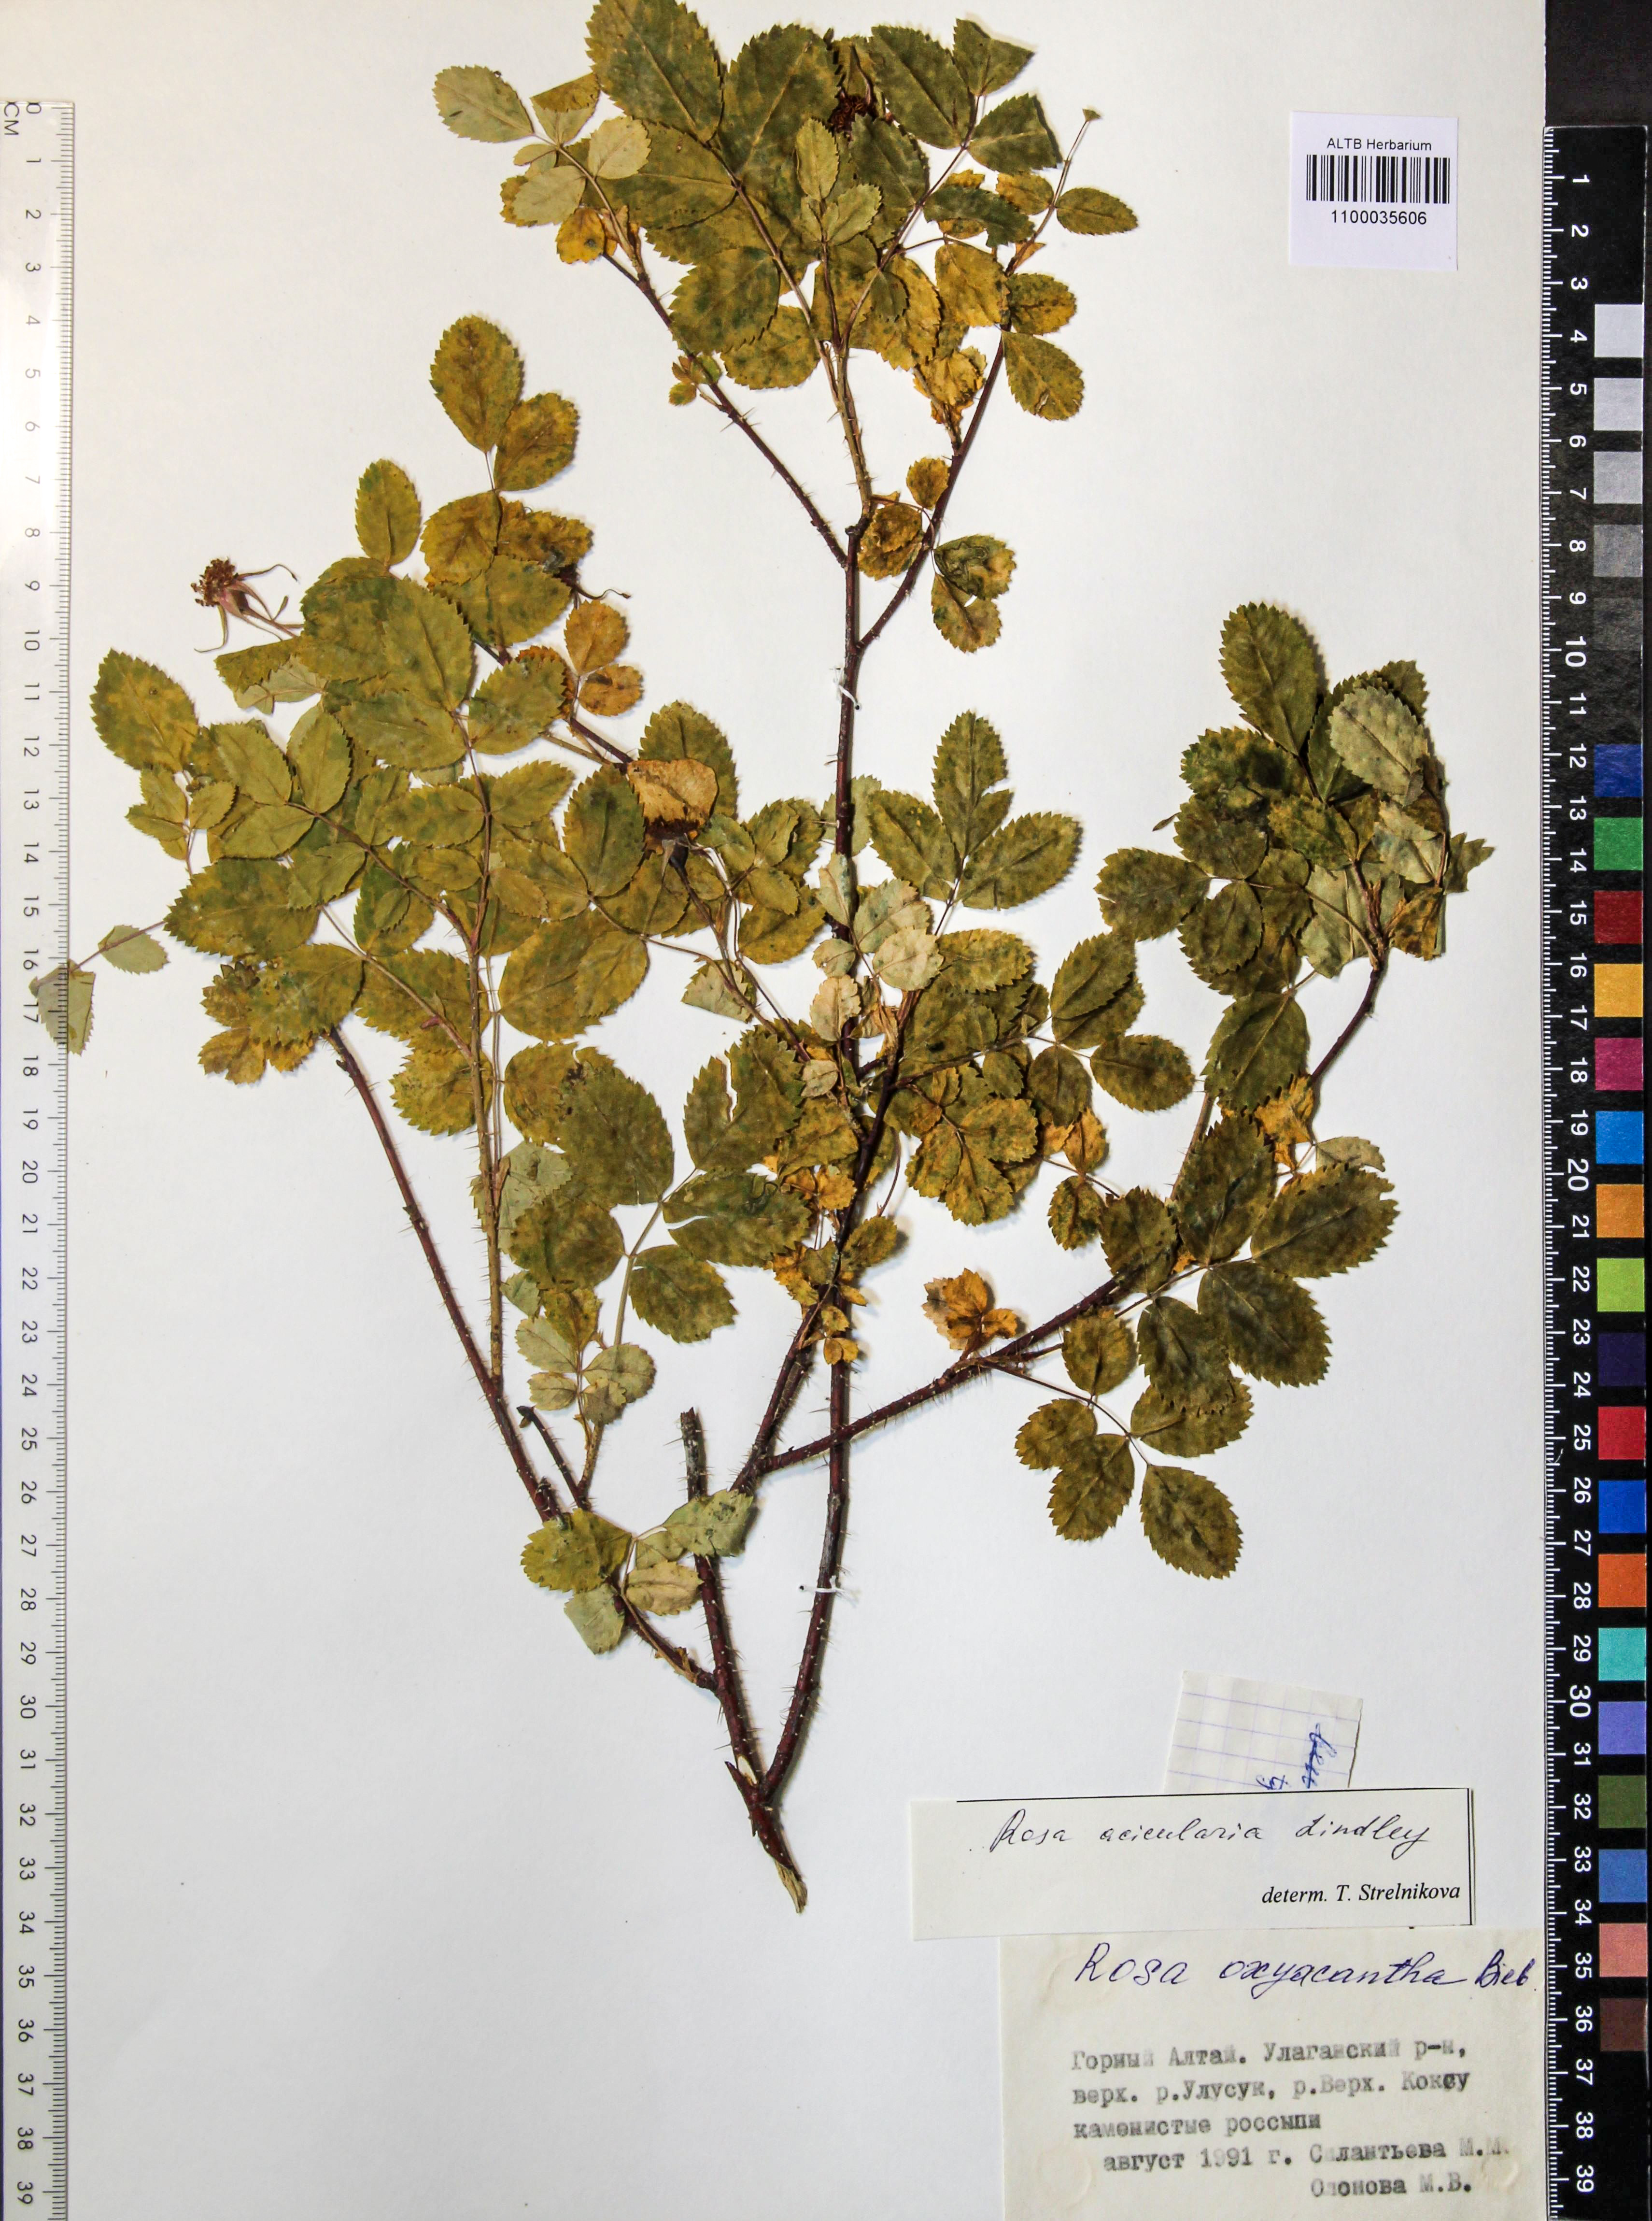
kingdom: Plantae
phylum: Tracheophyta
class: Magnoliopsida
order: Rosales
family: Rosaceae
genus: Rosa
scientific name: Rosa acicularis
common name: Prickly rose
